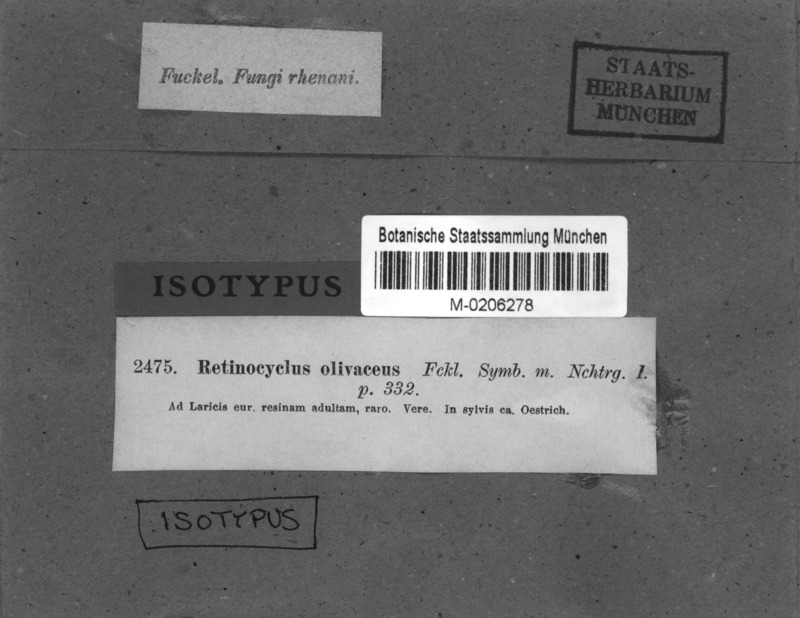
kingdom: Fungi
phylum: Ascomycota
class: Leotiomycetes
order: Leotiales
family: Tympanidaceae
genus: Claussenomyces
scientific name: Claussenomyces olivaceus
